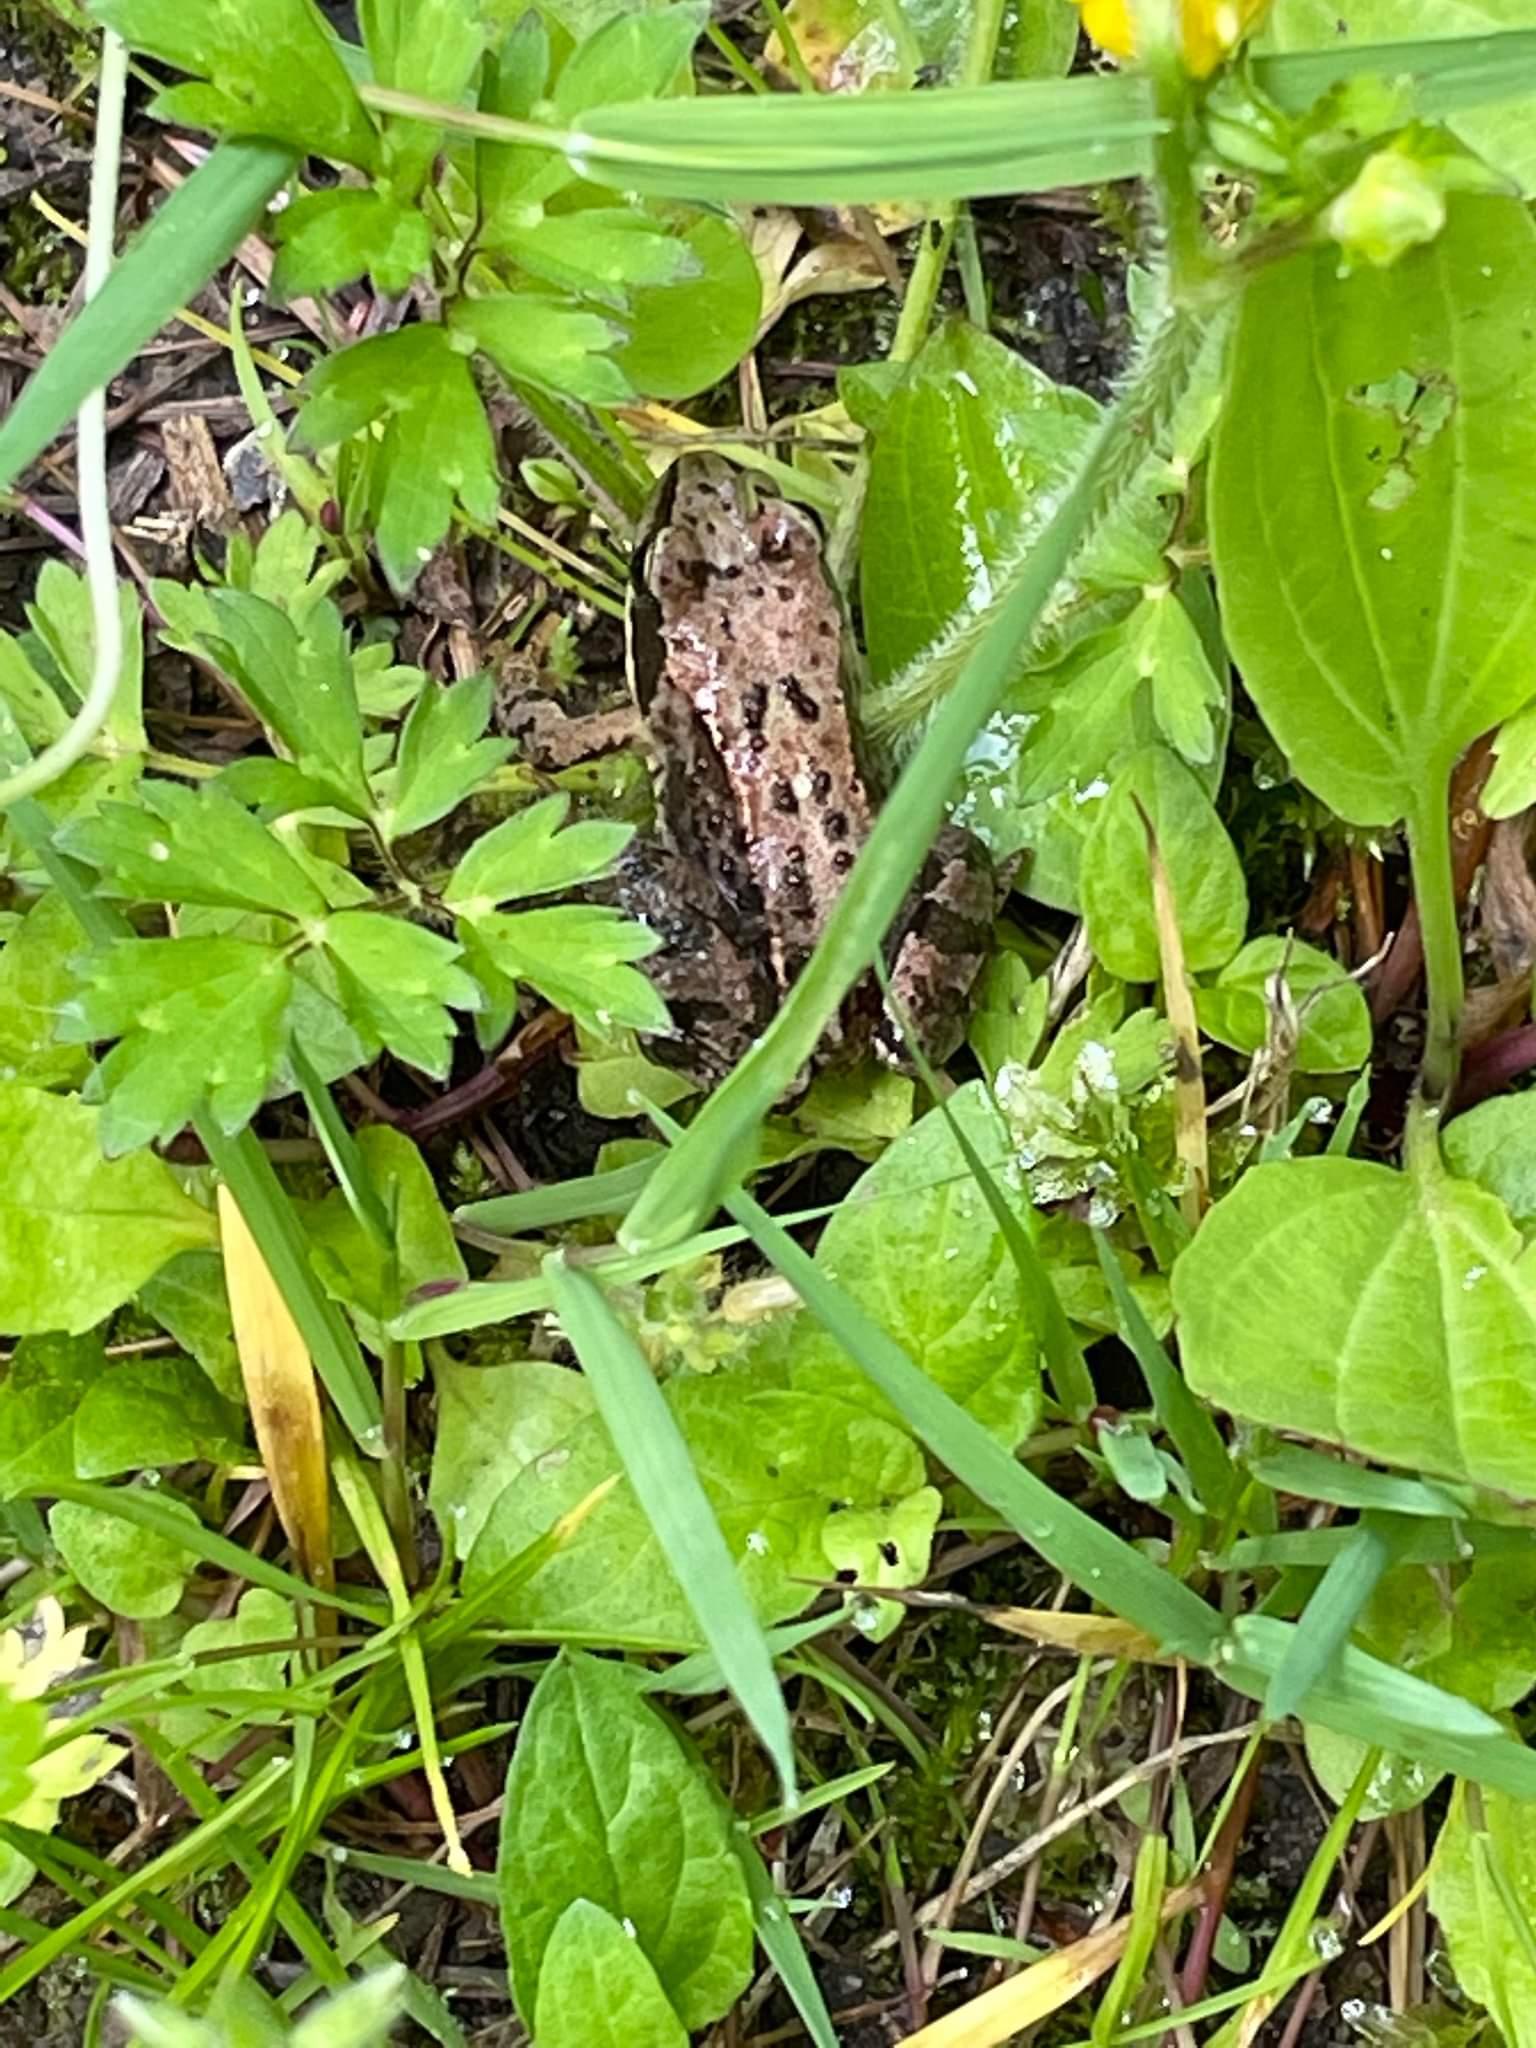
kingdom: Animalia
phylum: Chordata
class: Amphibia
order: Anura
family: Ranidae
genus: Rana
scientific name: Rana temporaria
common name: Butsnudet frø
